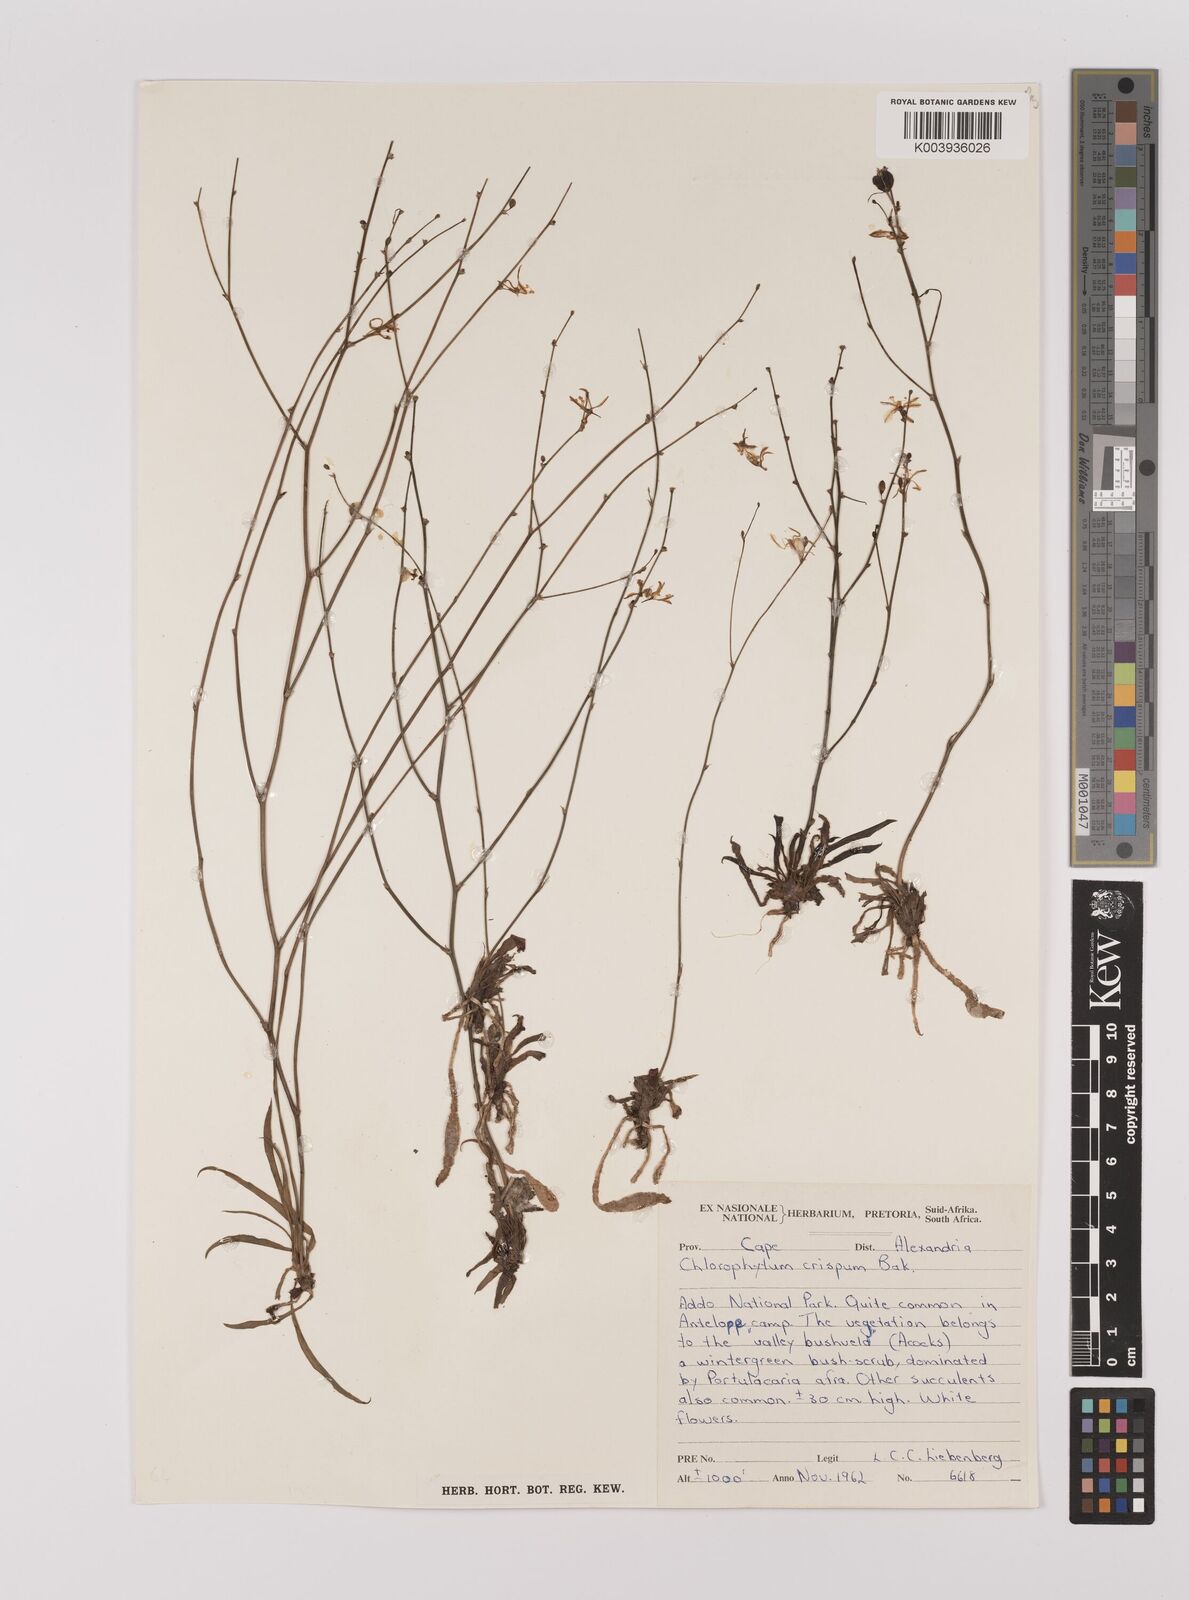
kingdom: Plantae
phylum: Tracheophyta
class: Liliopsida
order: Asparagales
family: Asparagaceae
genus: Chlorophytum
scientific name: Chlorophytum crispum
